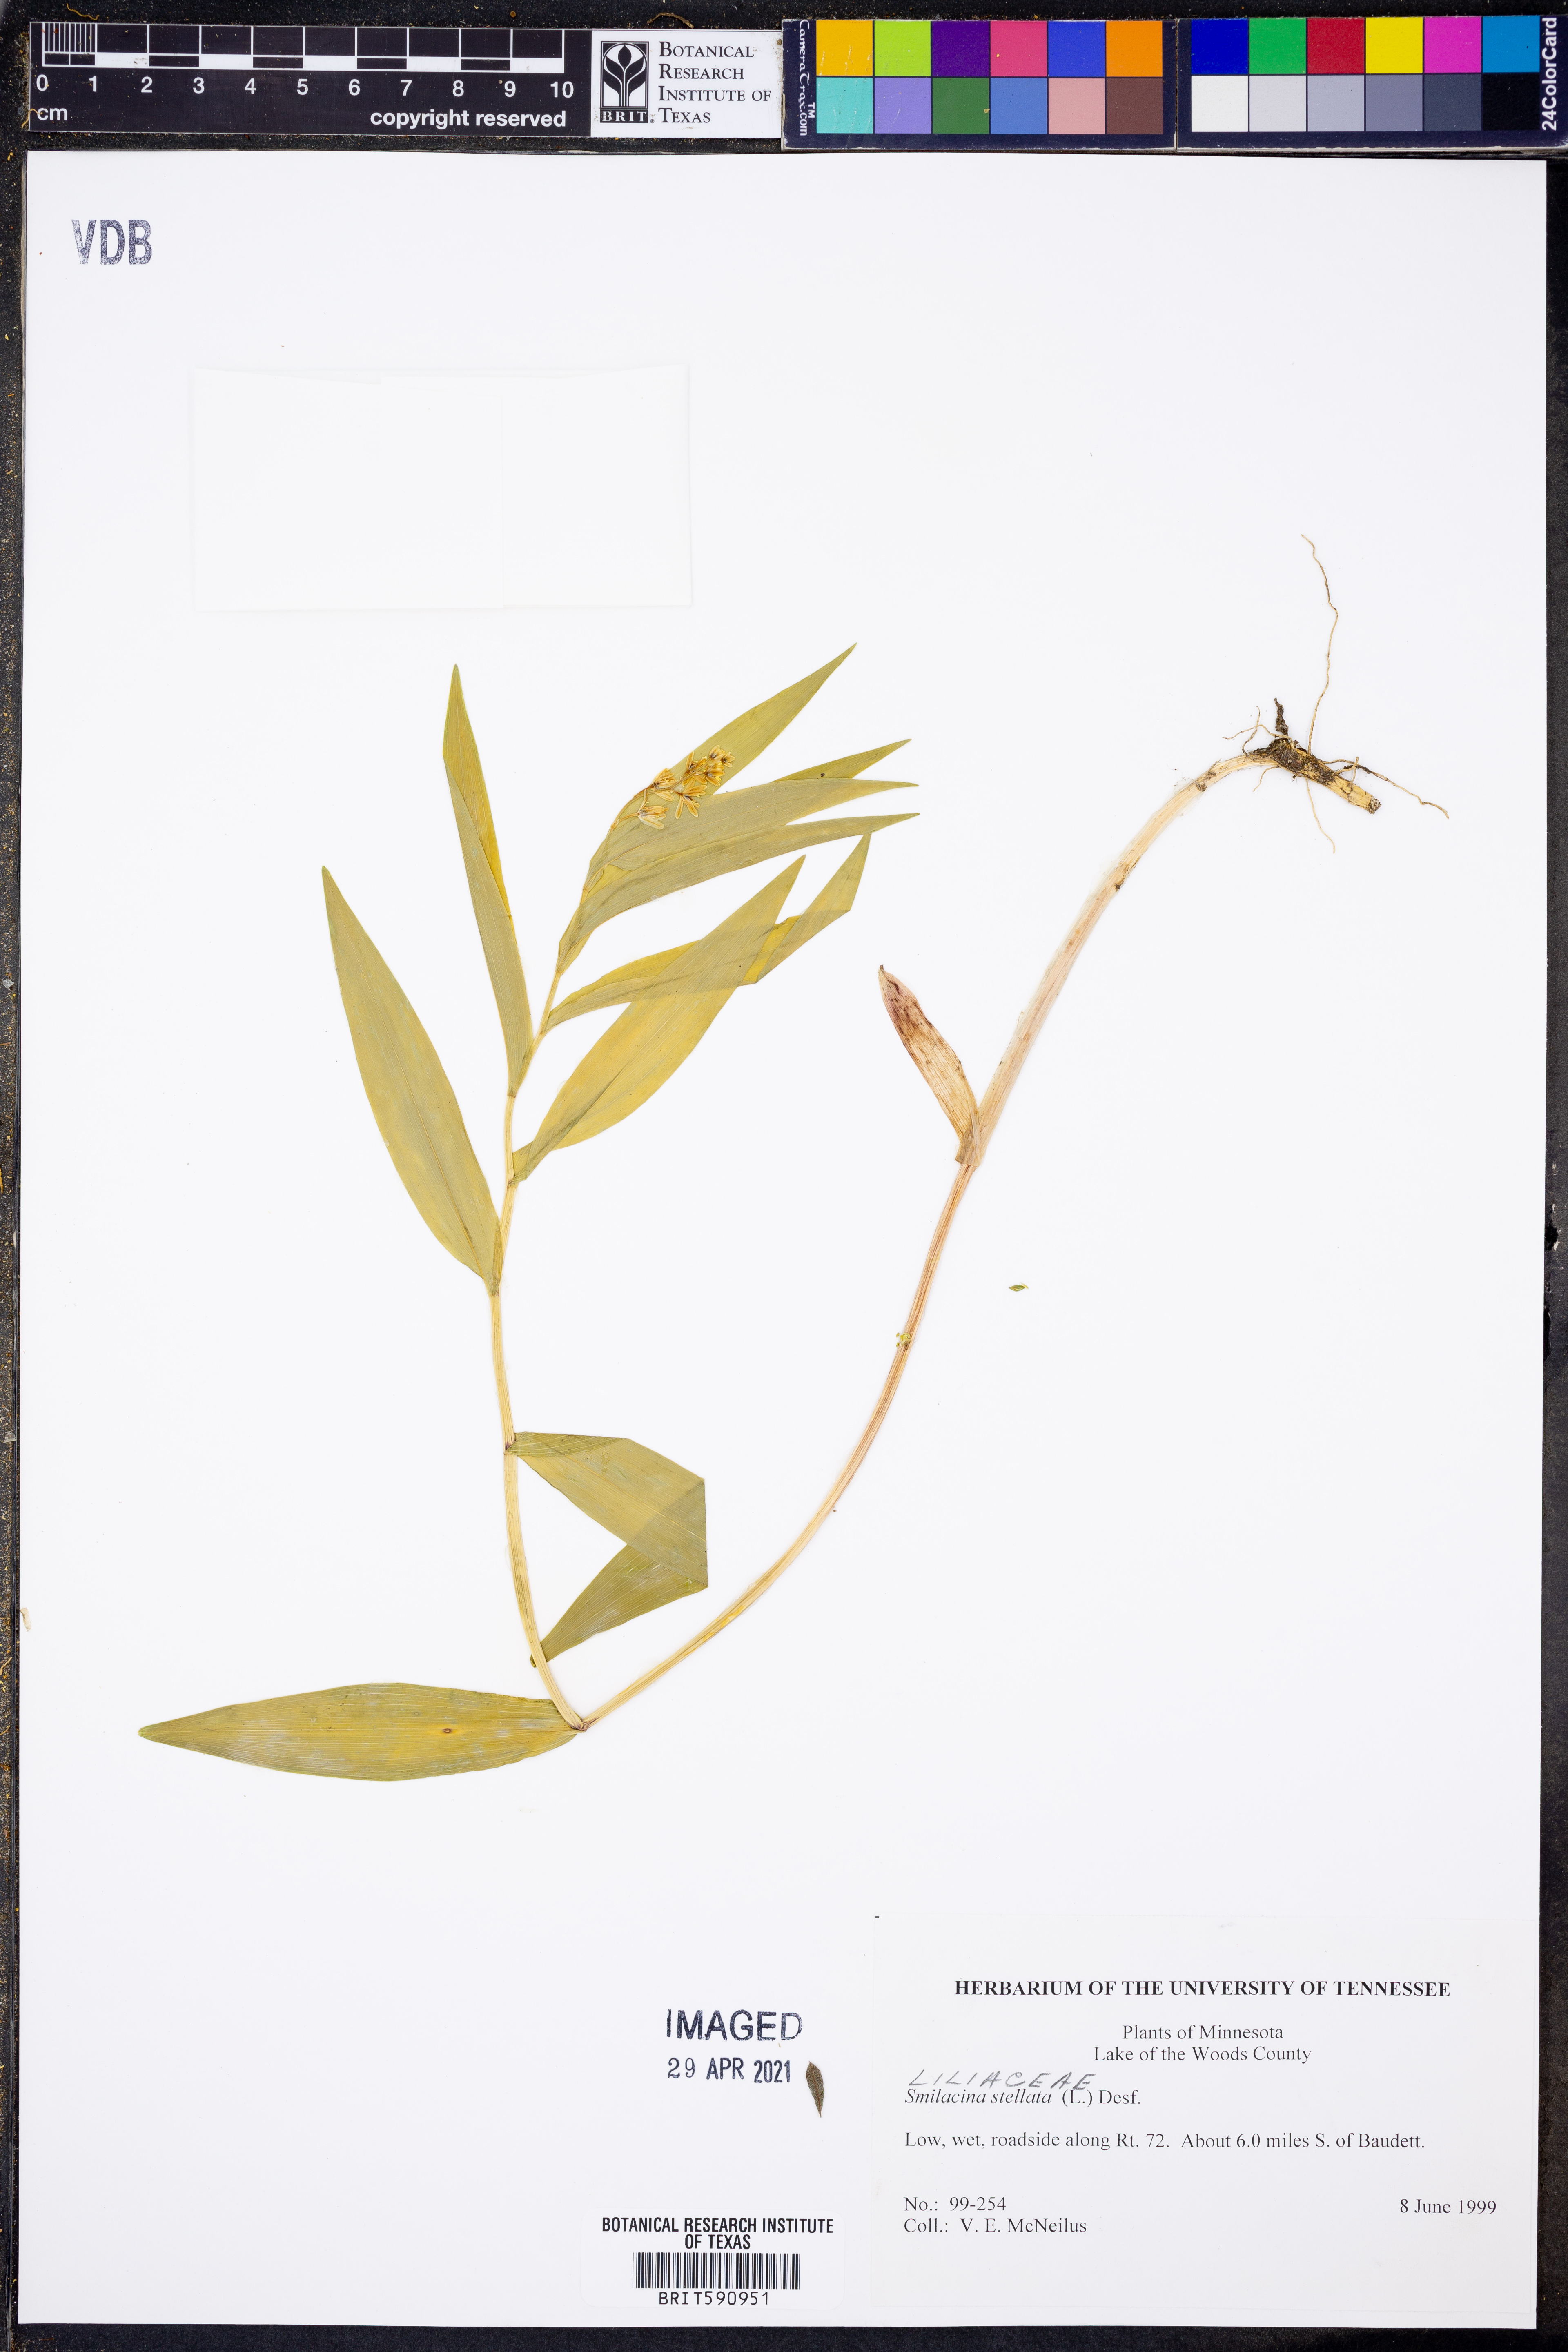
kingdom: Plantae
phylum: Tracheophyta
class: Liliopsida
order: Asparagales
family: Asparagaceae
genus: Maianthemum
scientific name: Maianthemum stellatum
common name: Little false solomon's seal
